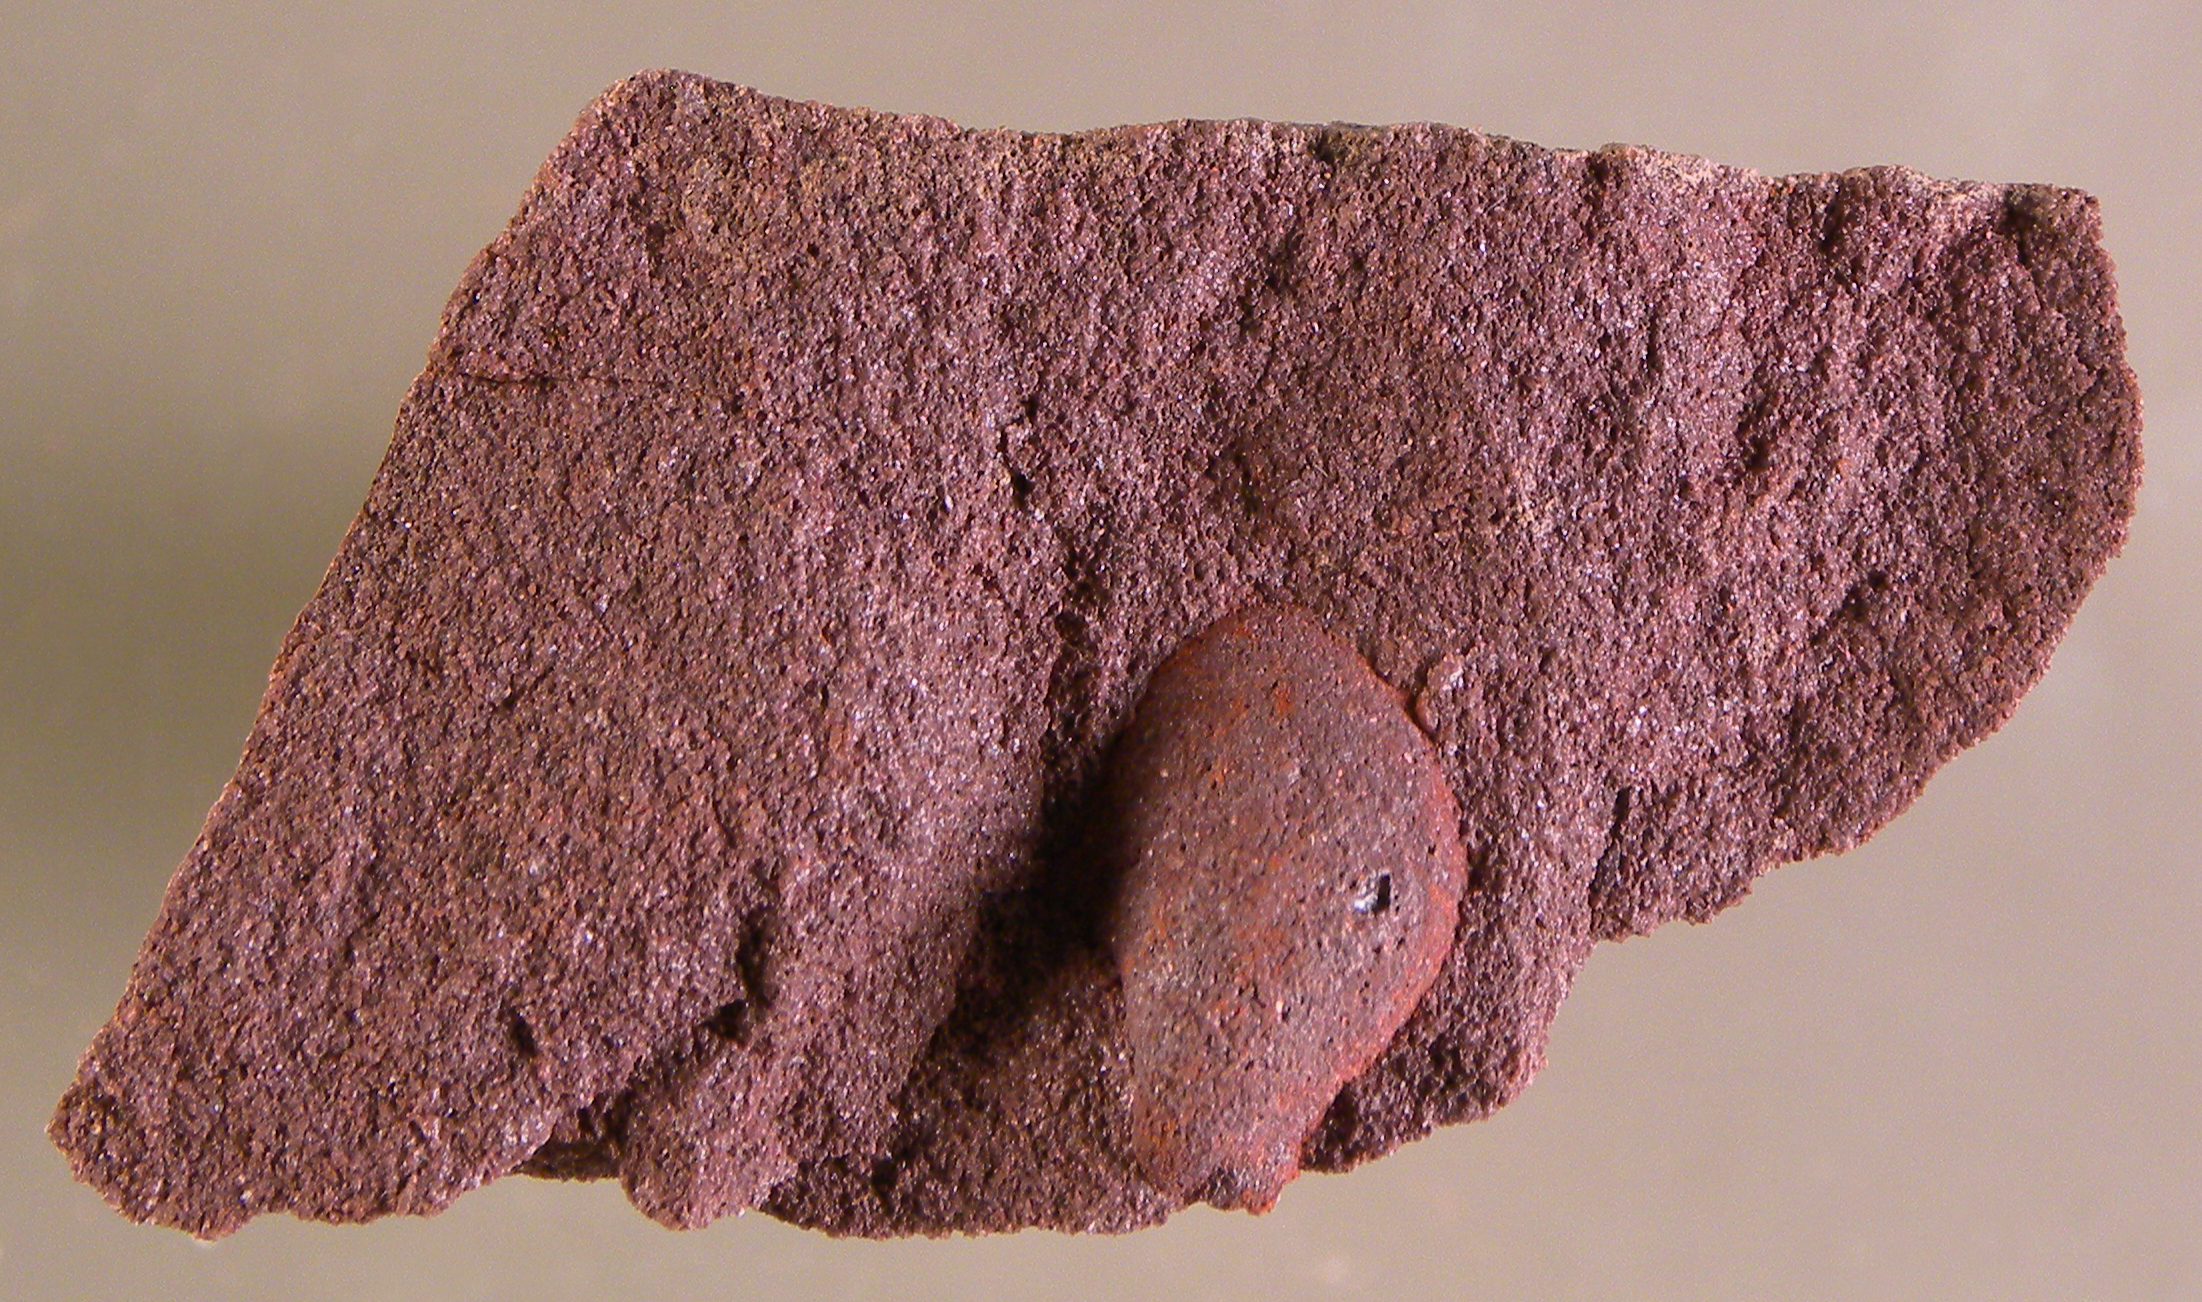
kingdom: Animalia
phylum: Mollusca
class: Bivalvia
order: Ostreida
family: Pterineidae
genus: Leptodesma
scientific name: Leptodesma
